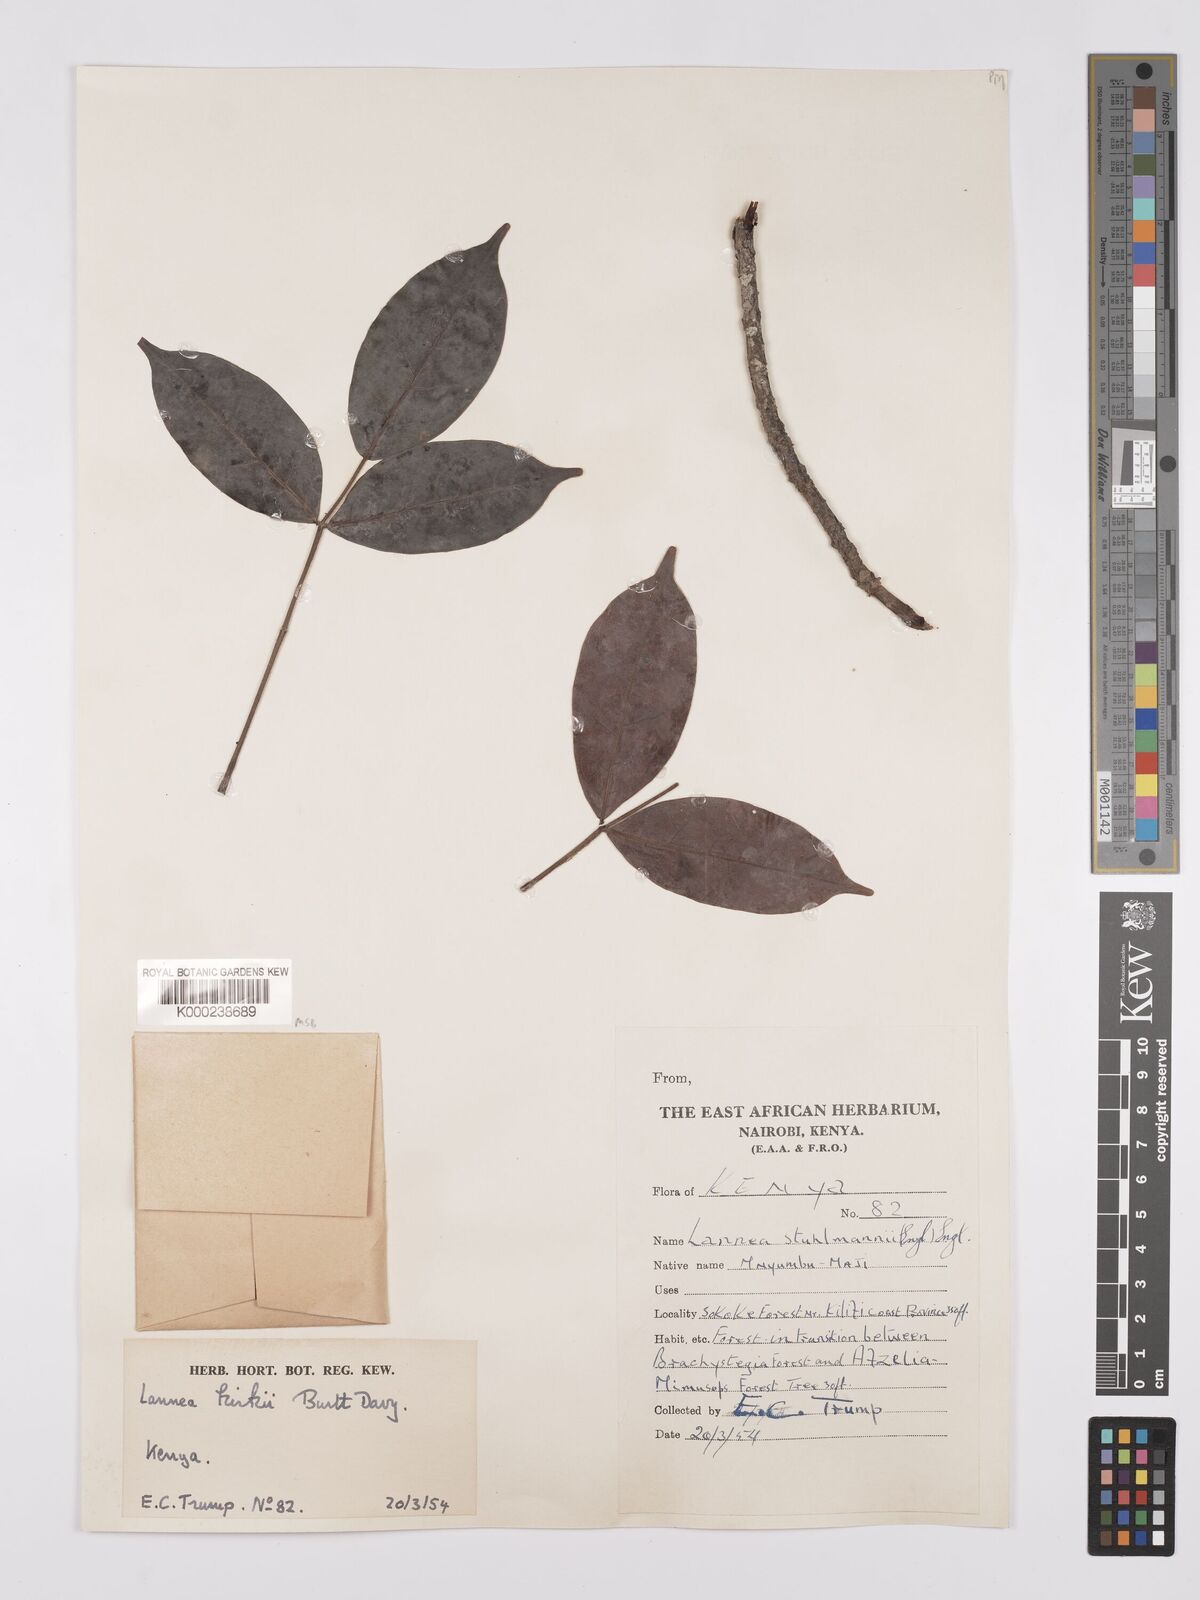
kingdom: Plantae
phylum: Tracheophyta
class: Magnoliopsida
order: Sapindales
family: Anacardiaceae
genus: Lannea
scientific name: Lannea schweinfurthii
